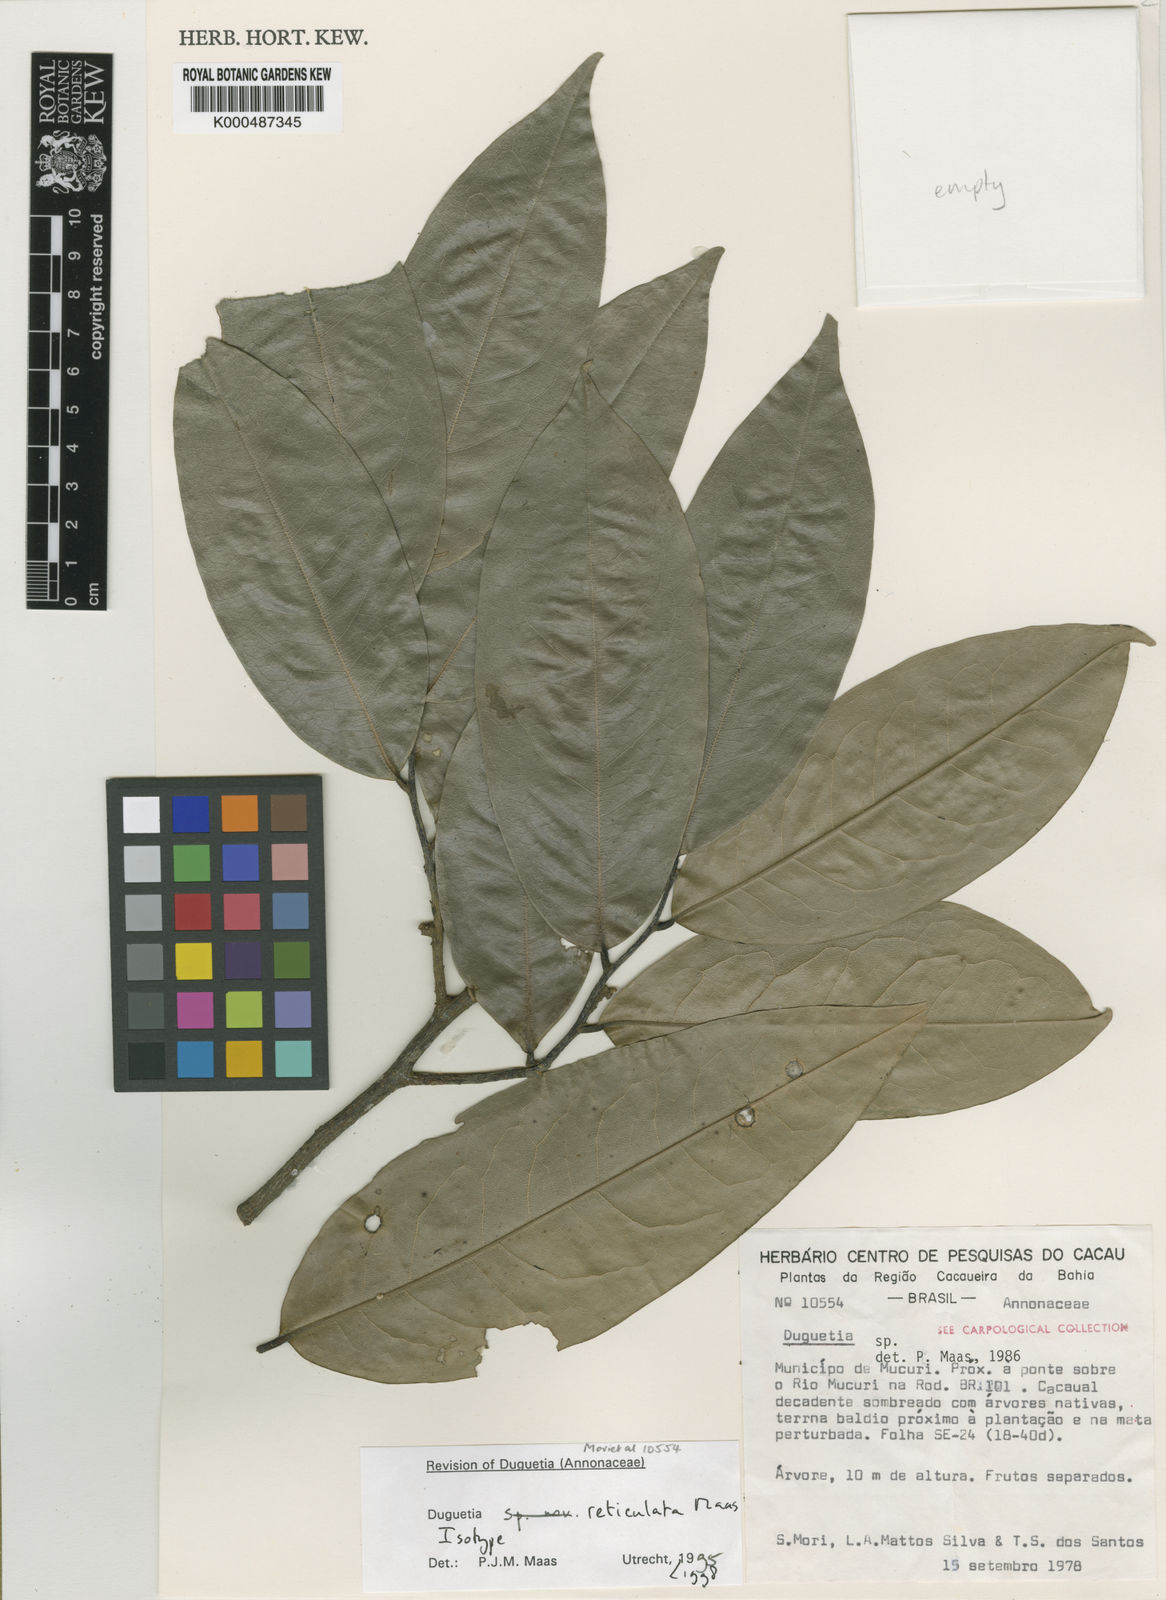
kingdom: Plantae
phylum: Tracheophyta
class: Magnoliopsida
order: Magnoliales
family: Annonaceae
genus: Duguetia
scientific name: Duguetia reticulata
